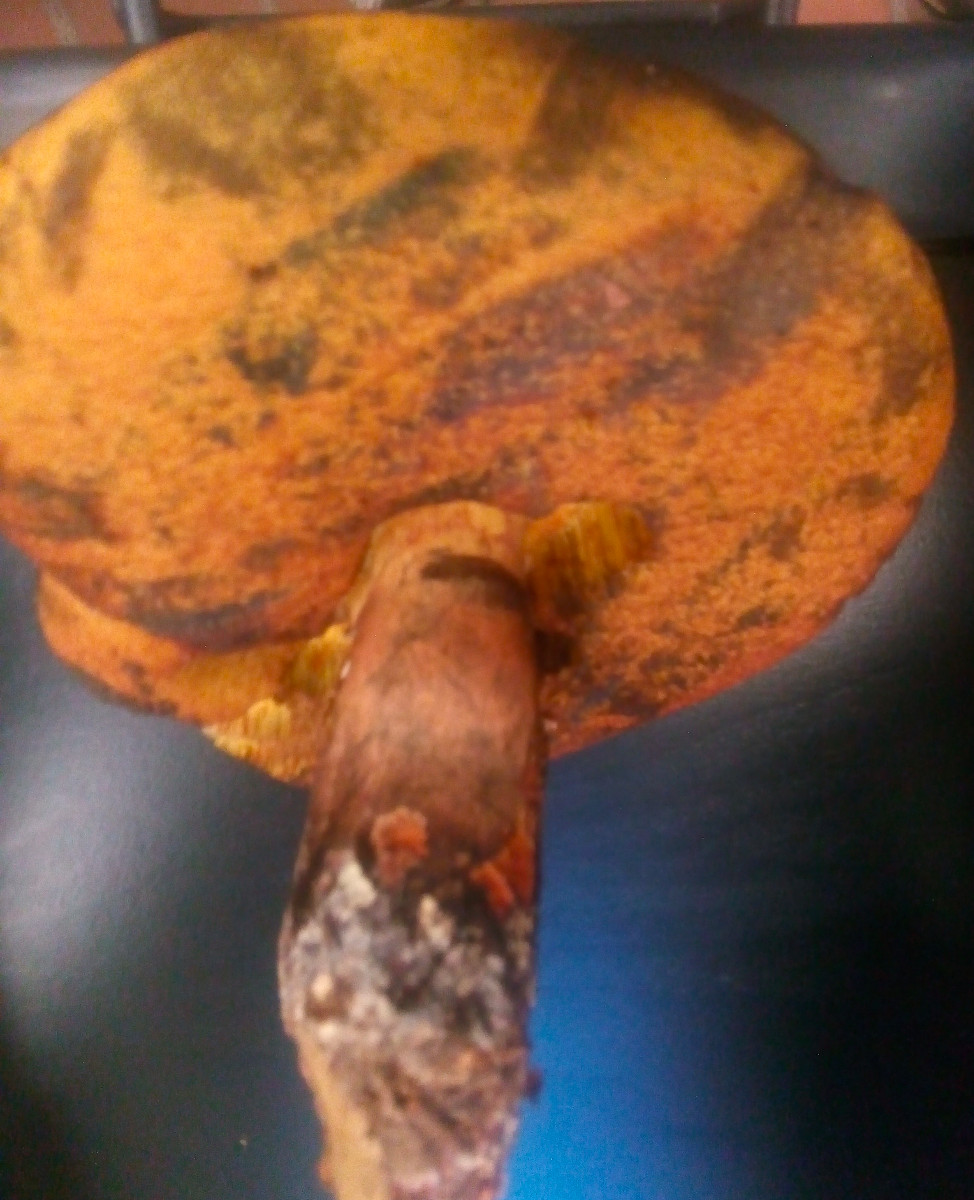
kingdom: Fungi
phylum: Basidiomycota
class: Agaricomycetes
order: Boletales
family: Boletaceae
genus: Neoboletus
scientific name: Neoboletus erythropus
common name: punktstokket indigorørhat
